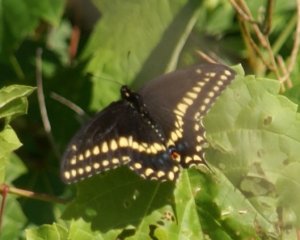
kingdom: Animalia
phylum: Arthropoda
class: Insecta
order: Lepidoptera
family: Papilionidae
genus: Papilio
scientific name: Papilio polyxenes
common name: Black Swallowtail
